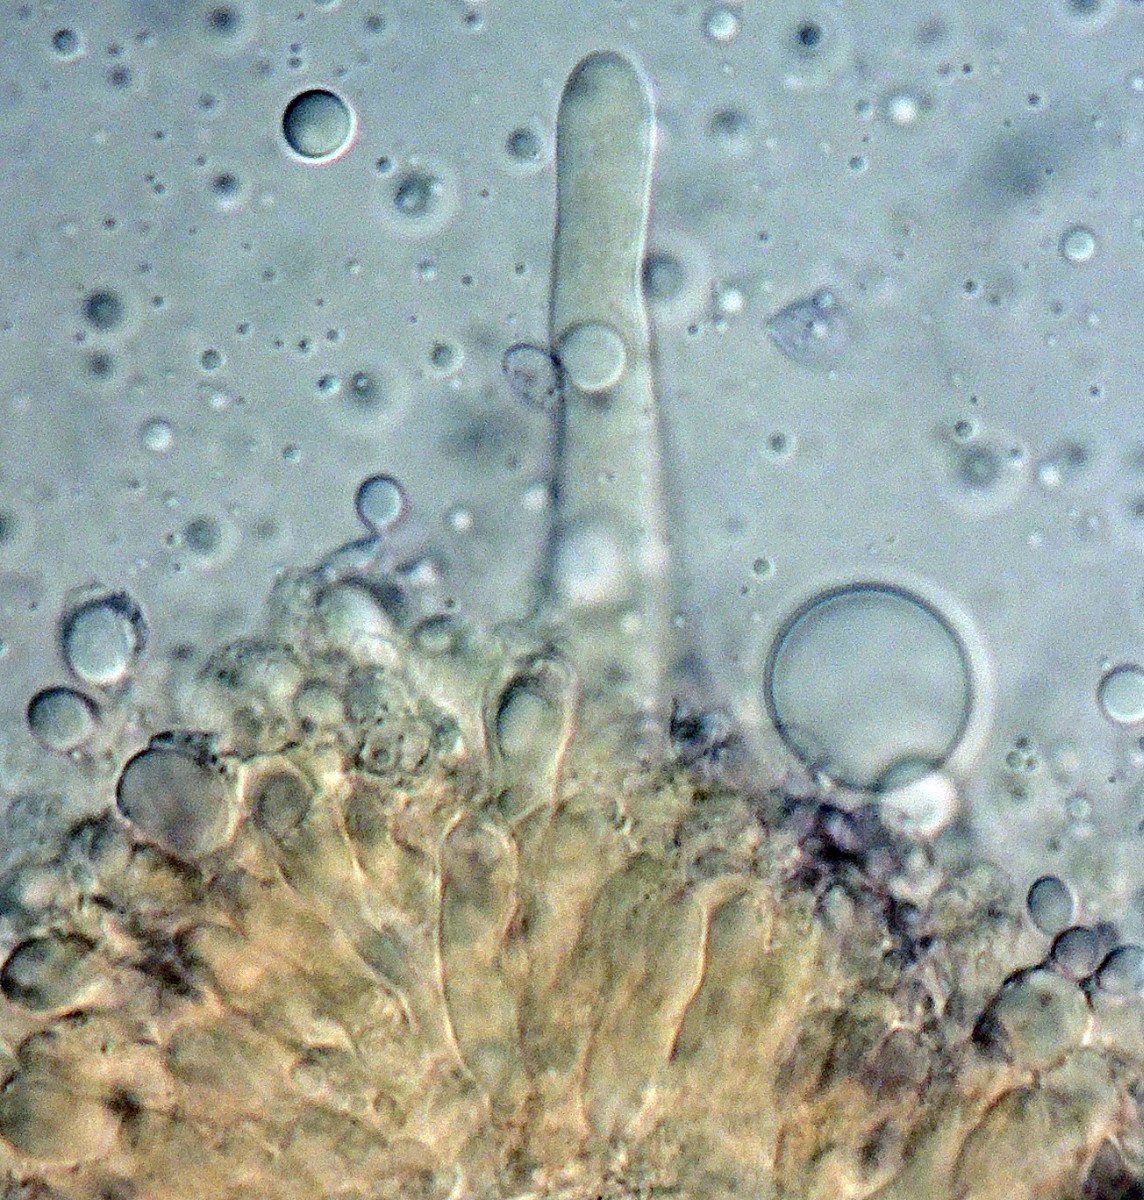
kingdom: Fungi
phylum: Basidiomycota
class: Agaricomycetes
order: Agaricales
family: Mycenaceae
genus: Mycopan
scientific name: Mycopan scabripes
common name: mørk fnugfod
